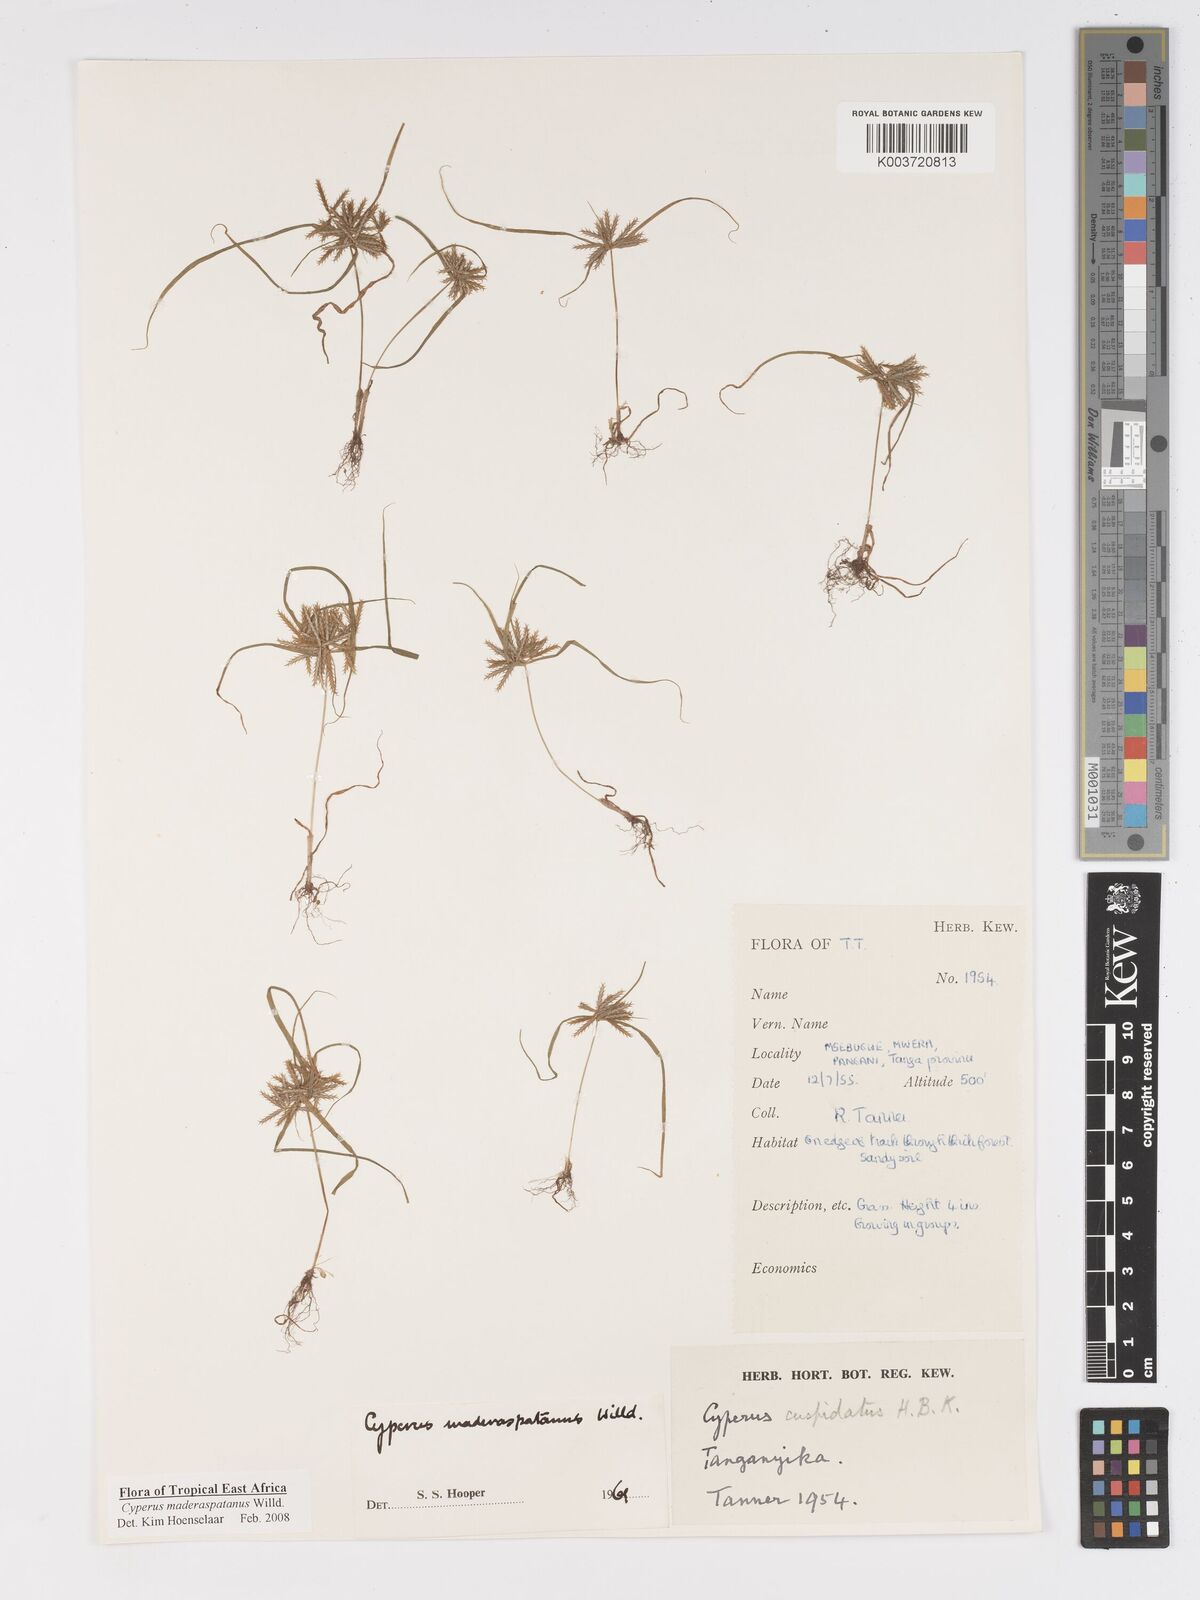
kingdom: Plantae
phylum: Tracheophyta
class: Liliopsida
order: Poales
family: Cyperaceae
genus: Cyperus
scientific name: Cyperus maderaspatanus
